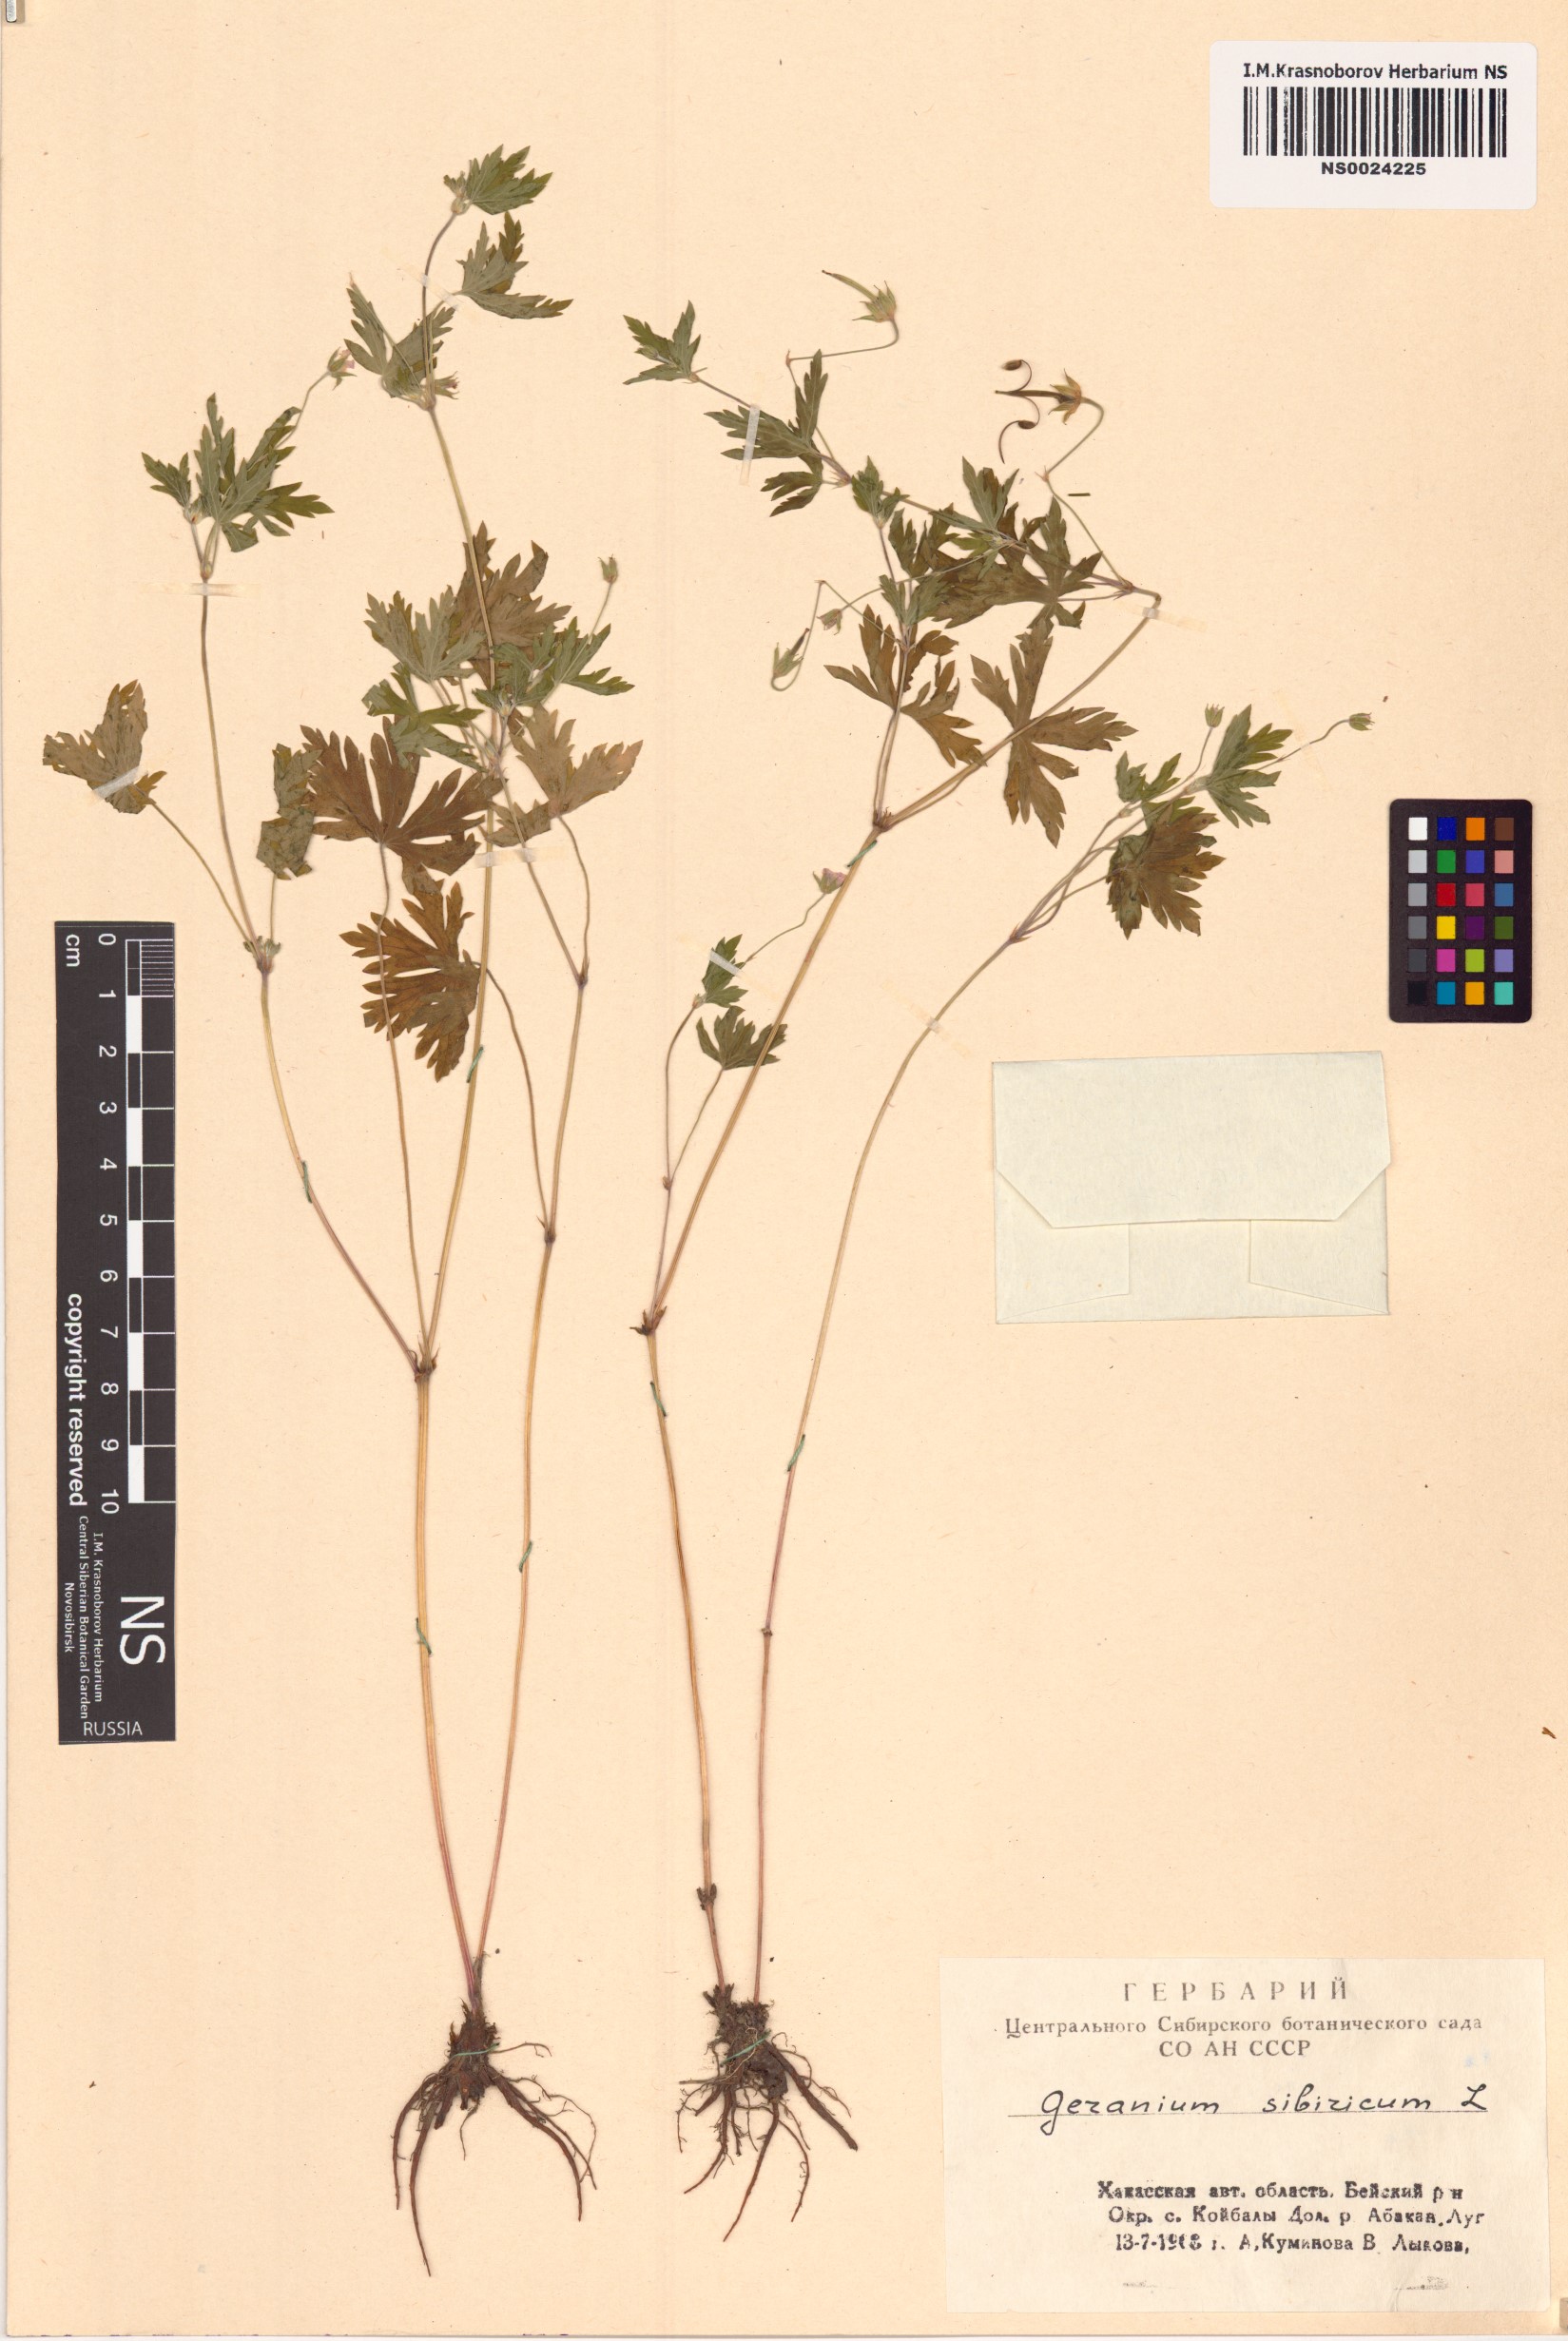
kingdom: Plantae
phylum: Tracheophyta
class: Magnoliopsida
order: Geraniales
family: Geraniaceae
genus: Geranium
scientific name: Geranium sibiricum
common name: Siberian crane's-bill
